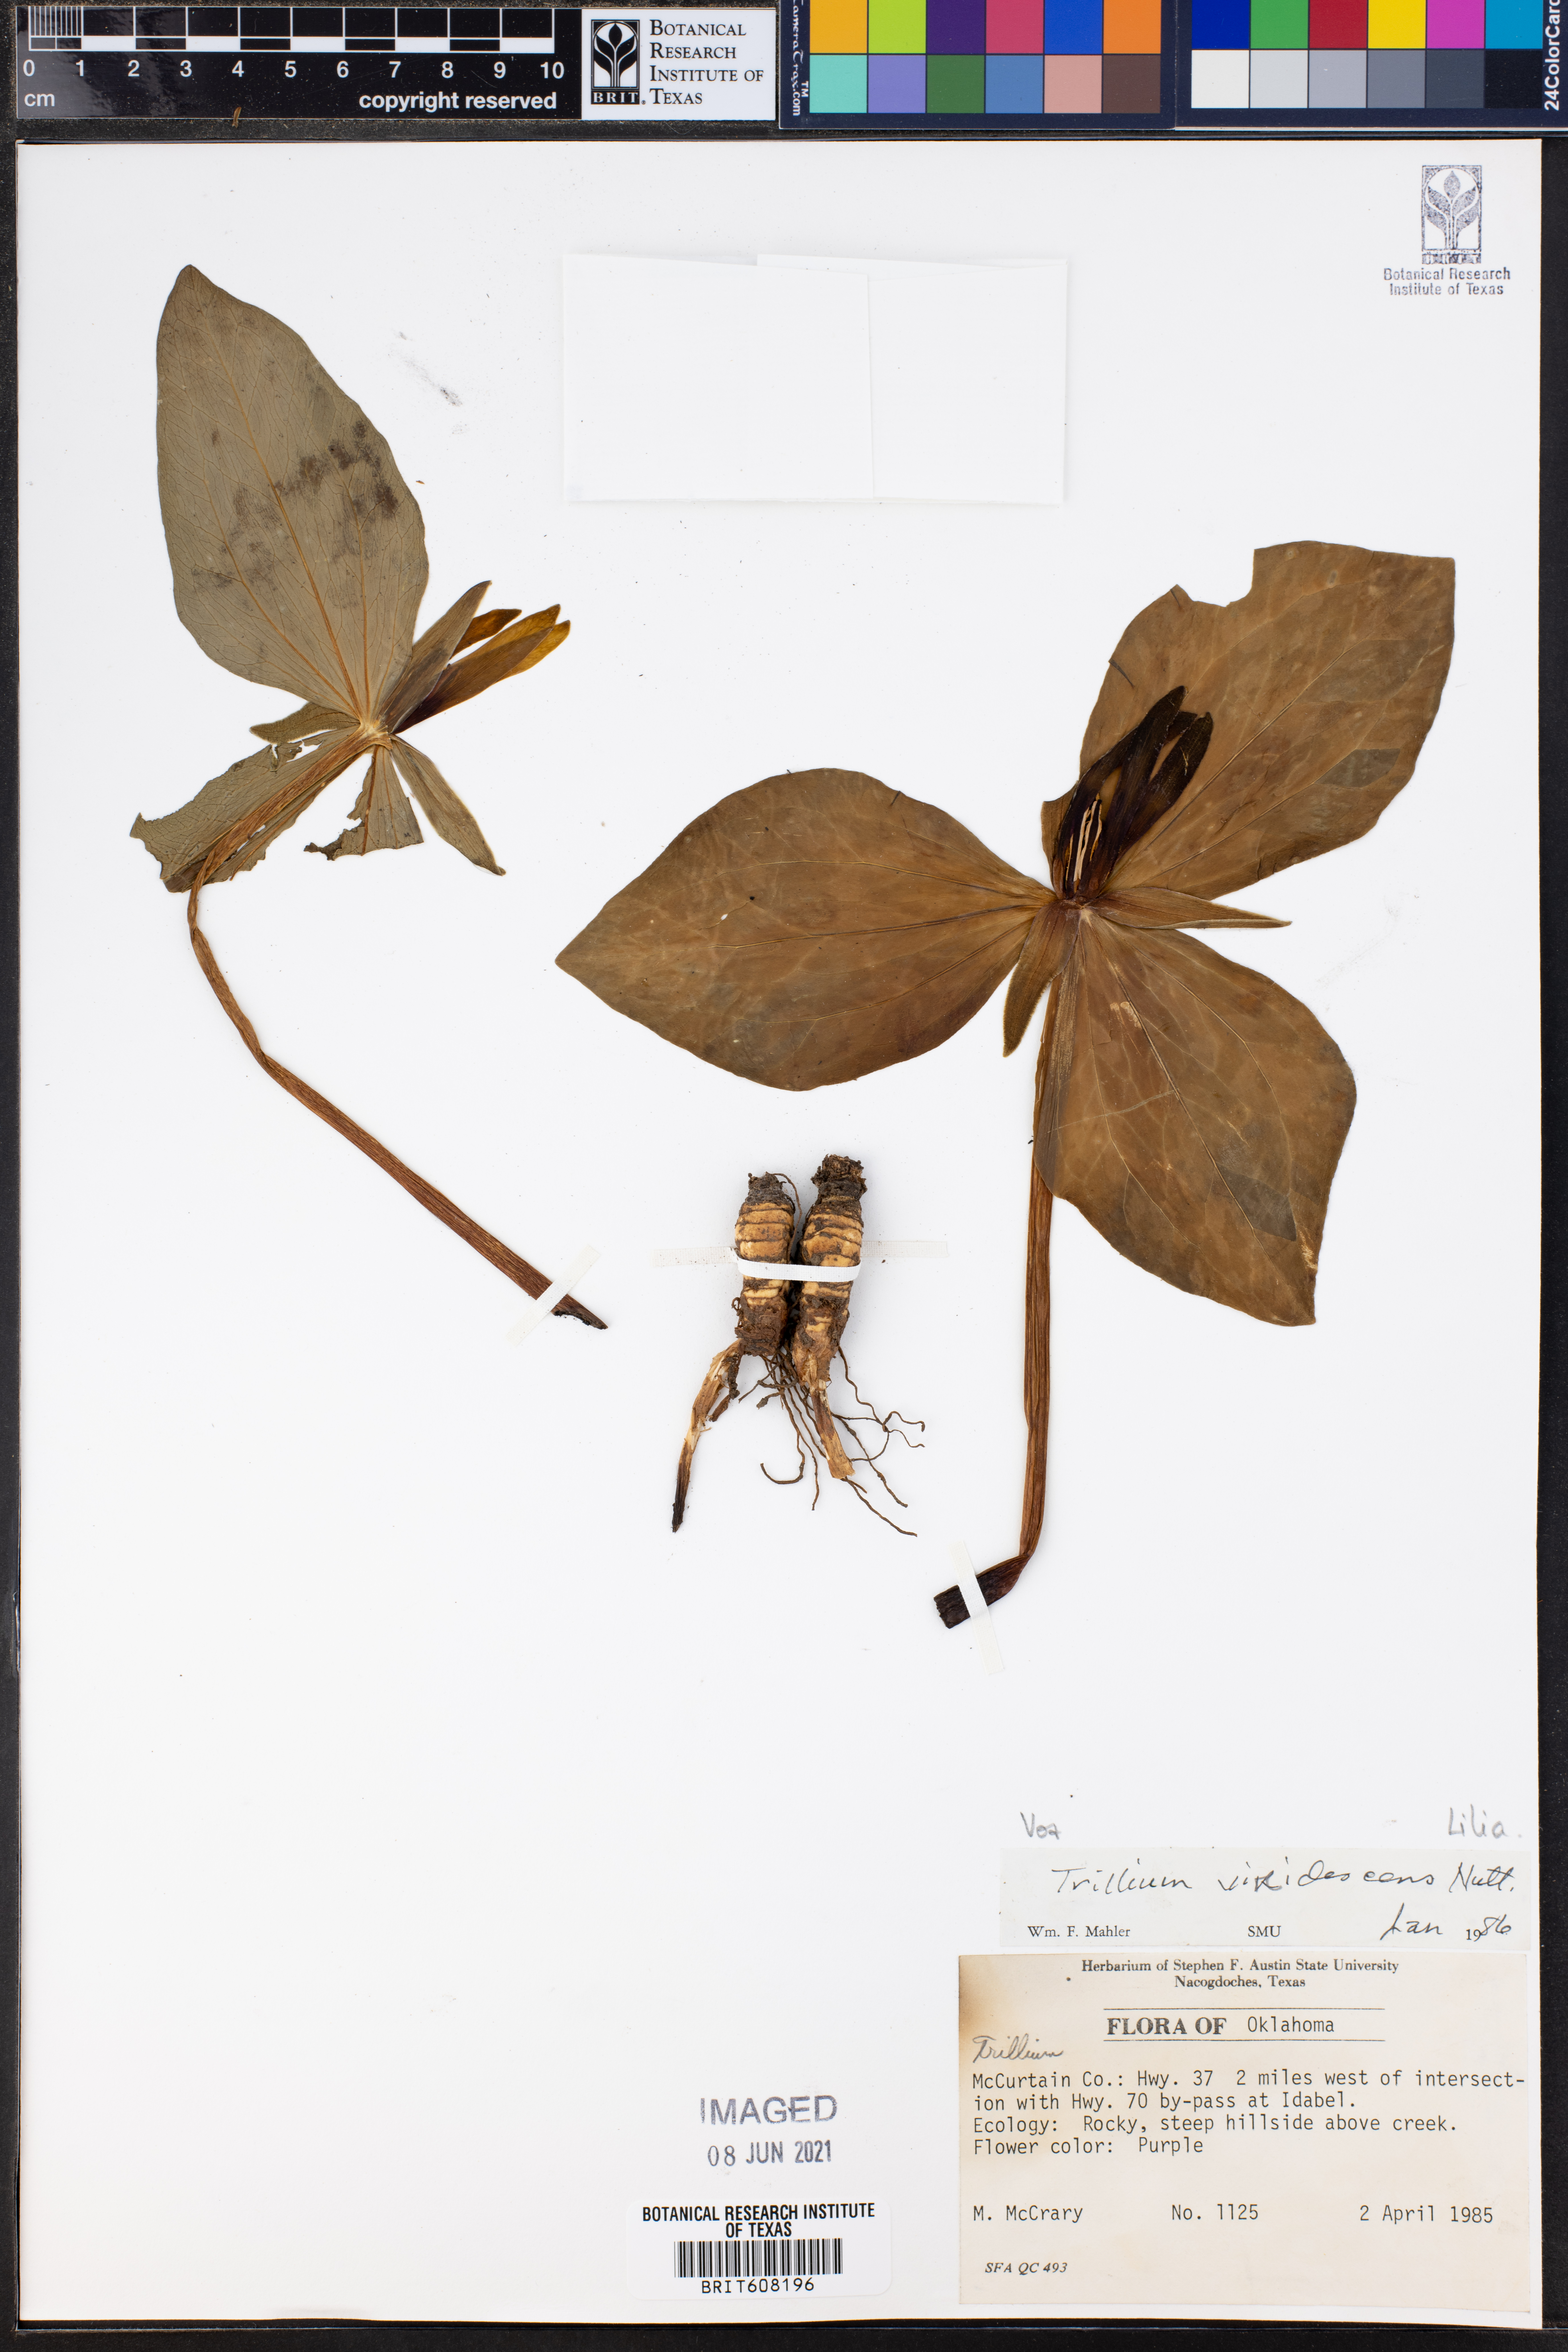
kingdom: Plantae
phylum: Tracheophyta
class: Liliopsida
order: Liliales
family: Melanthiaceae
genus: Trillium
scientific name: Trillium viridescens
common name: Ozark green trillium
